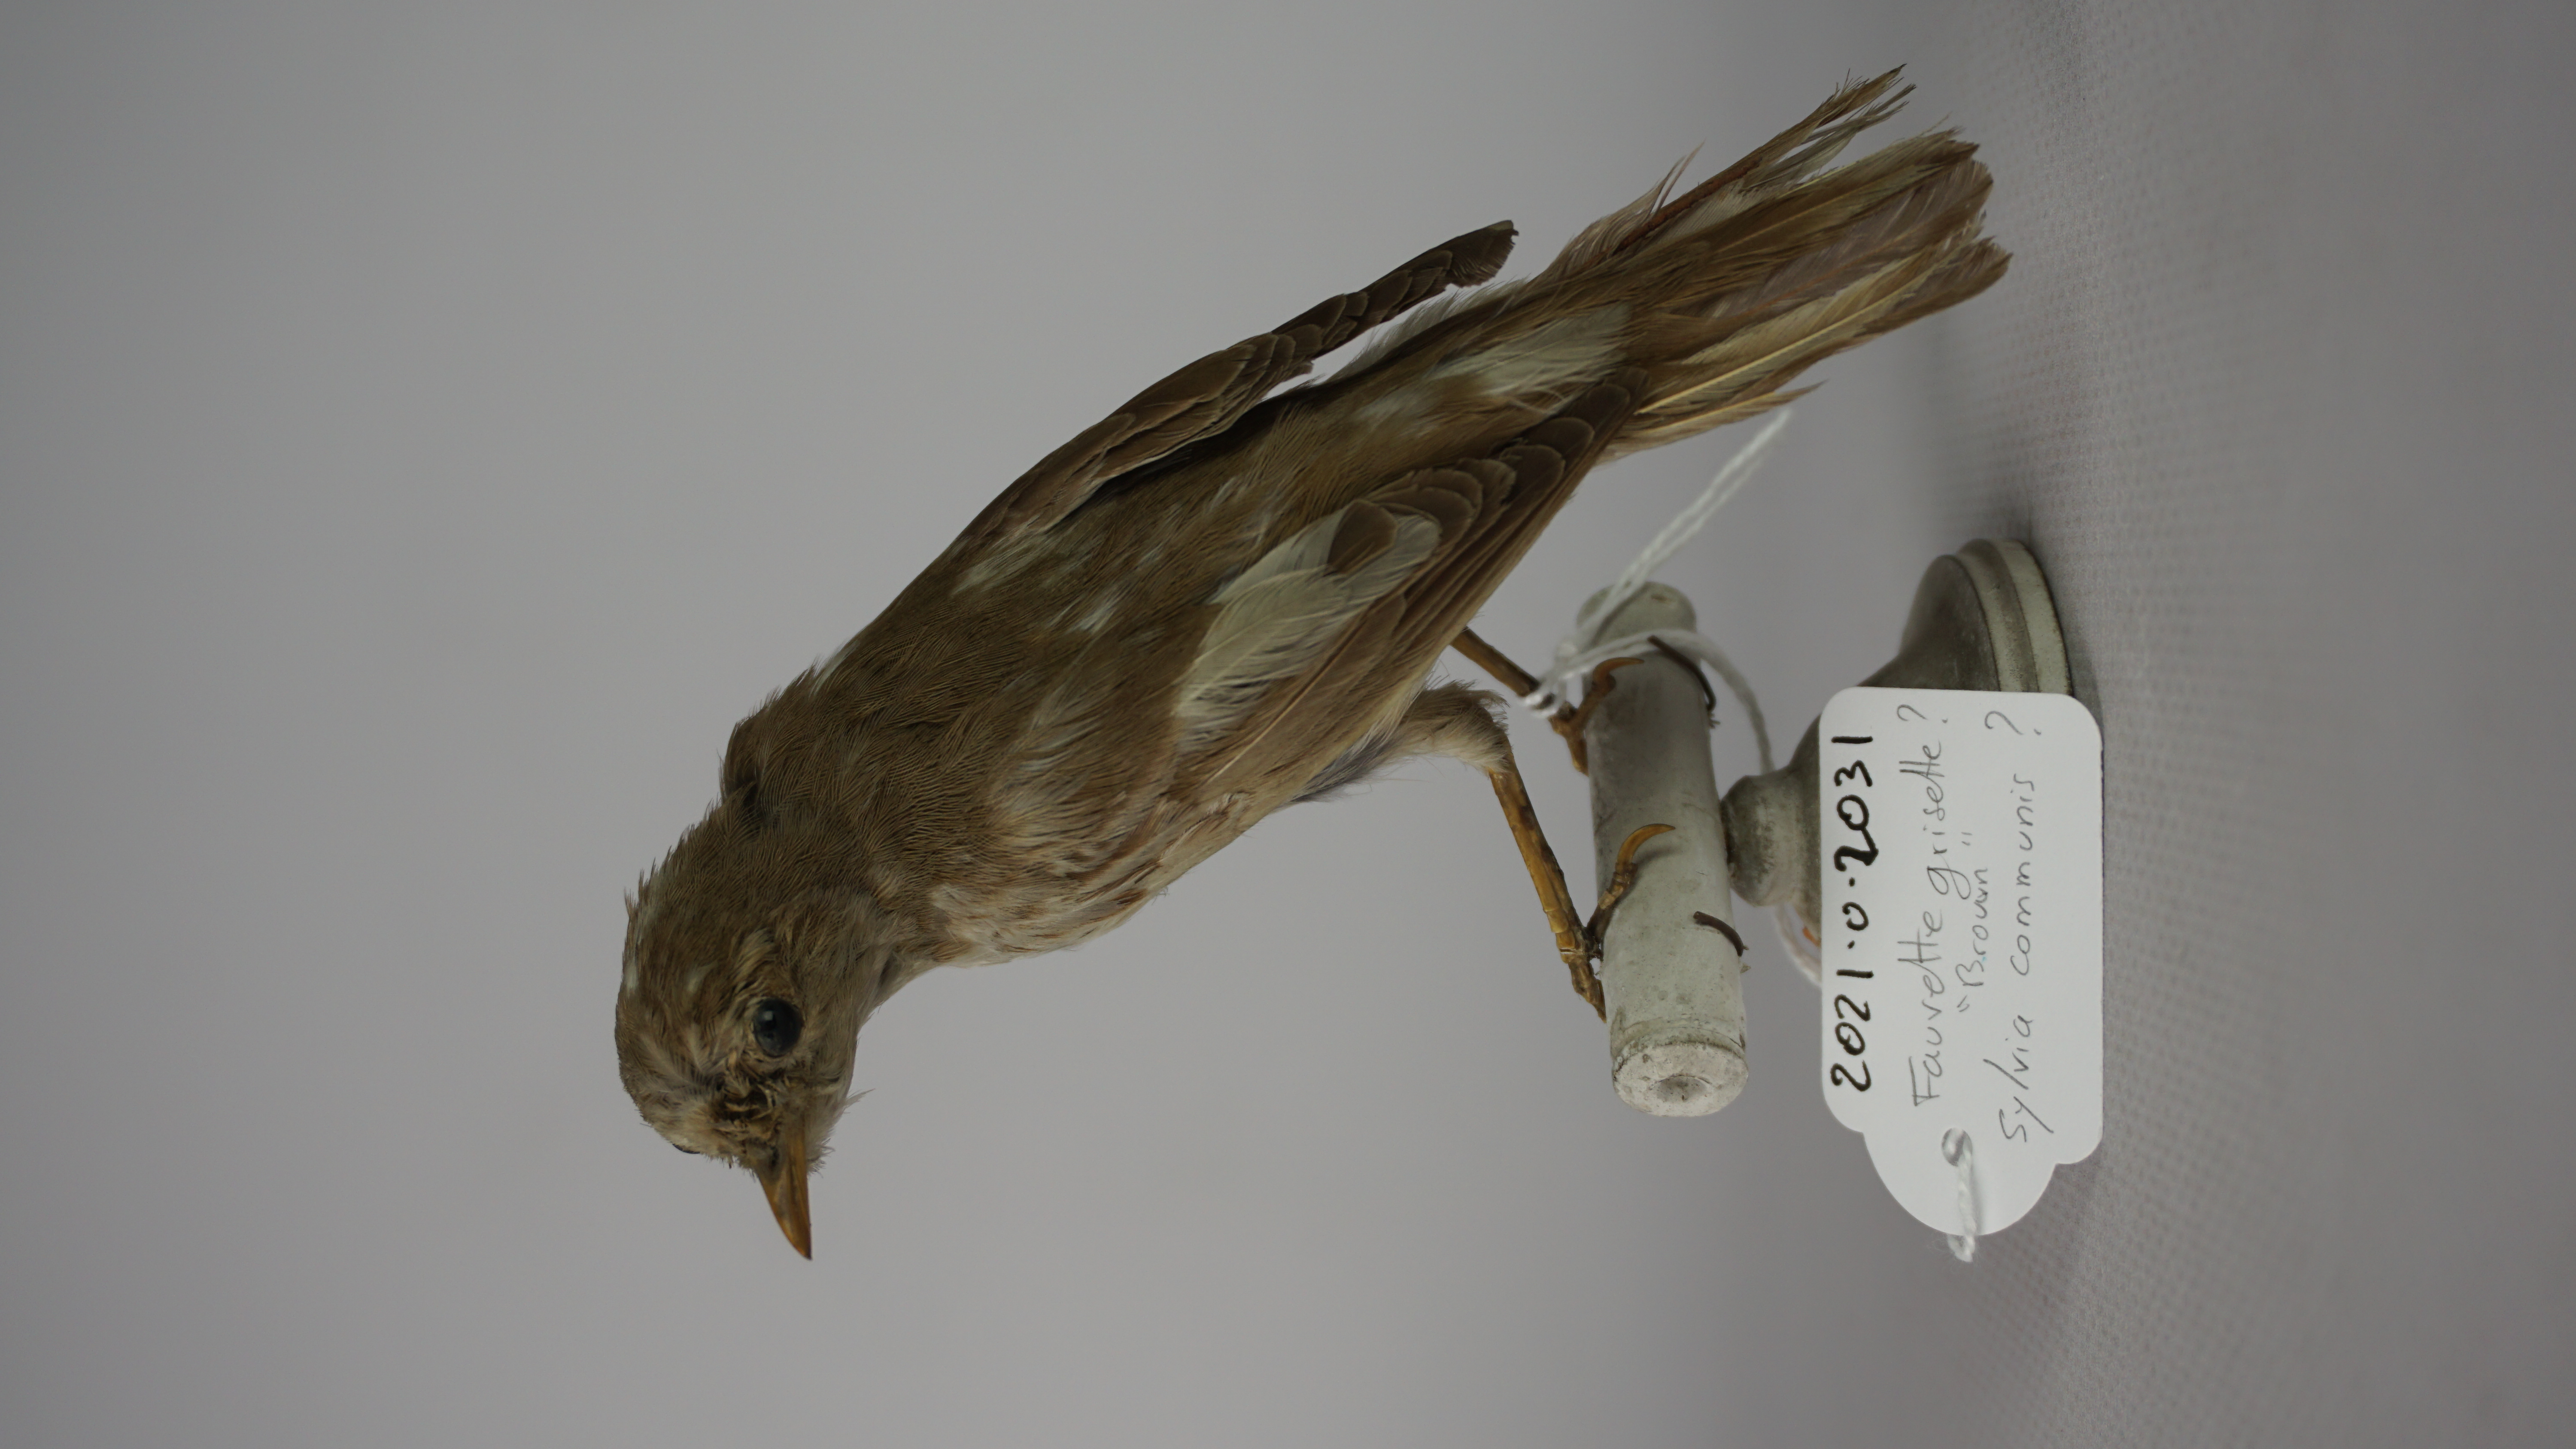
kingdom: Animalia
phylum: Chordata
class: Aves
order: Passeriformes
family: Sylviidae
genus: Sylvia
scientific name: Sylvia communis
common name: Common whitethroat
